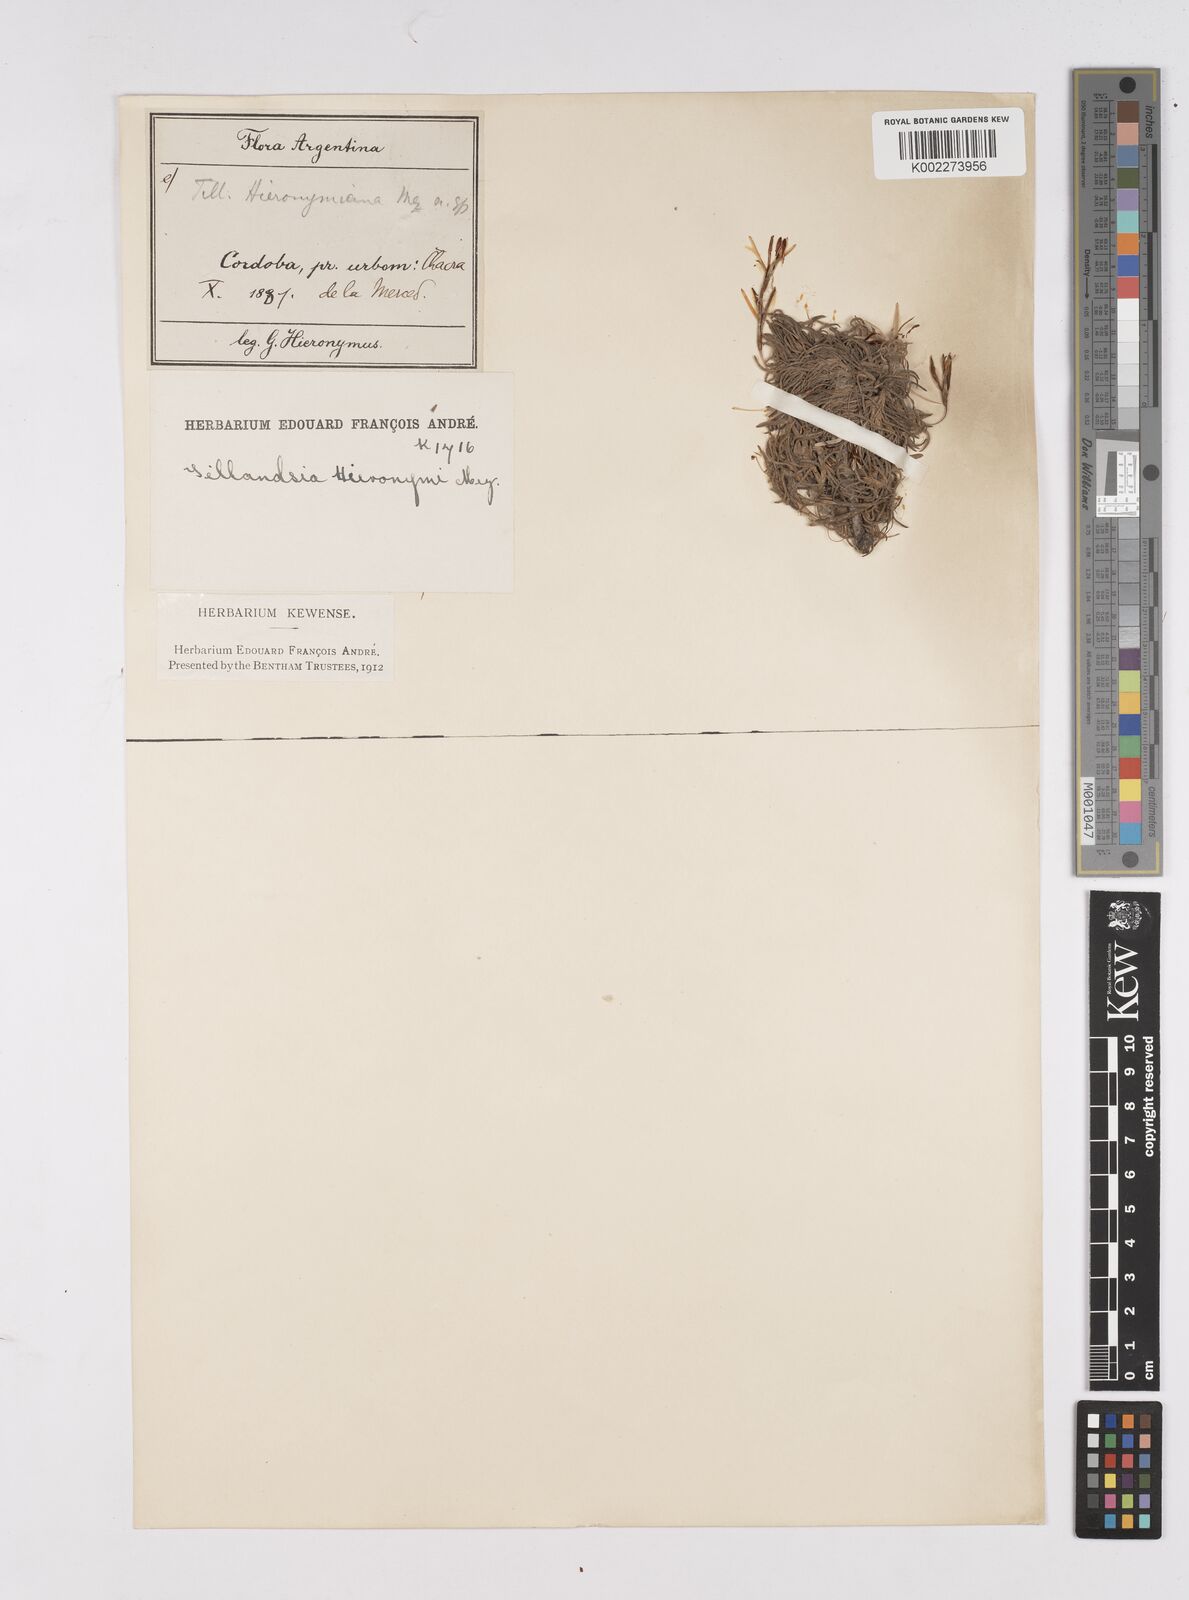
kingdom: Plantae
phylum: Tracheophyta
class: Liliopsida
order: Poales
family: Bromeliaceae
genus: Tillandsia
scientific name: Tillandsia capillaris
